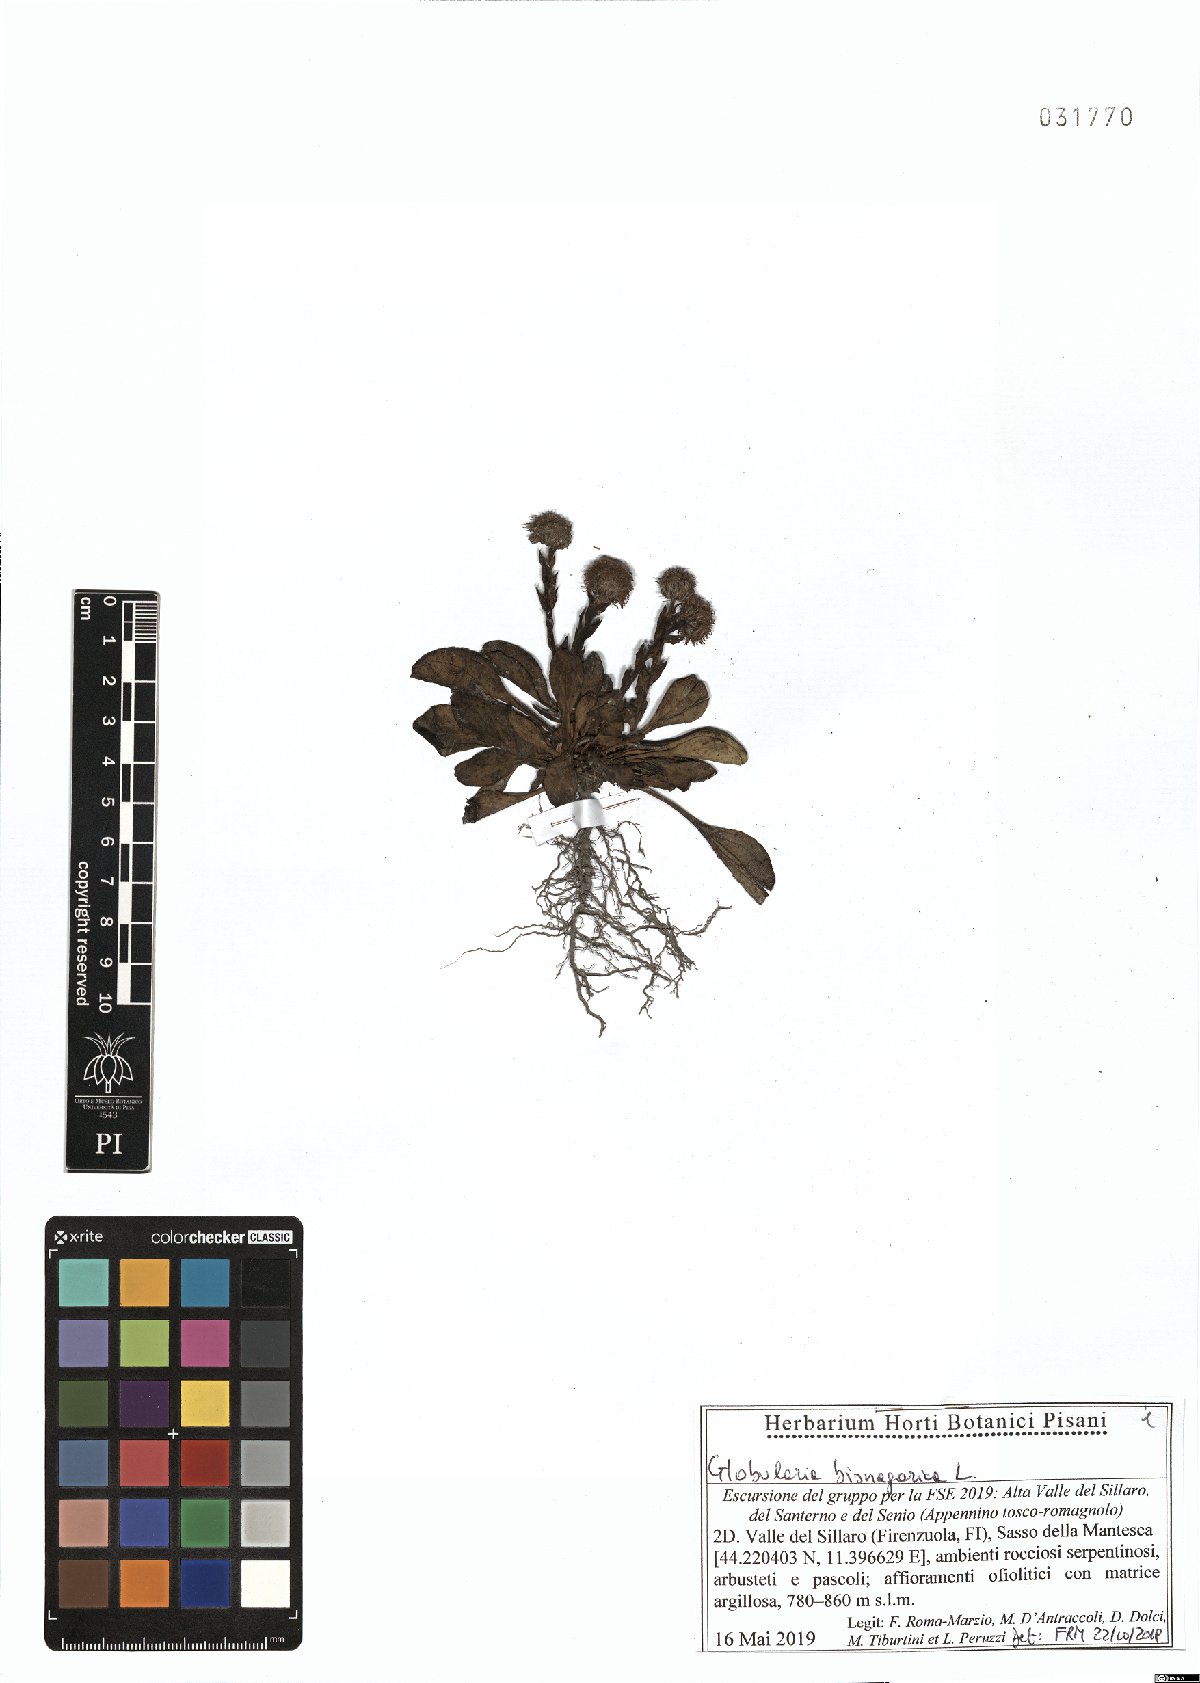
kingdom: Plantae
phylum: Tracheophyta
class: Magnoliopsida
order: Lamiales
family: Plantaginaceae
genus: Globularia
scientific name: Globularia bisnagarica
